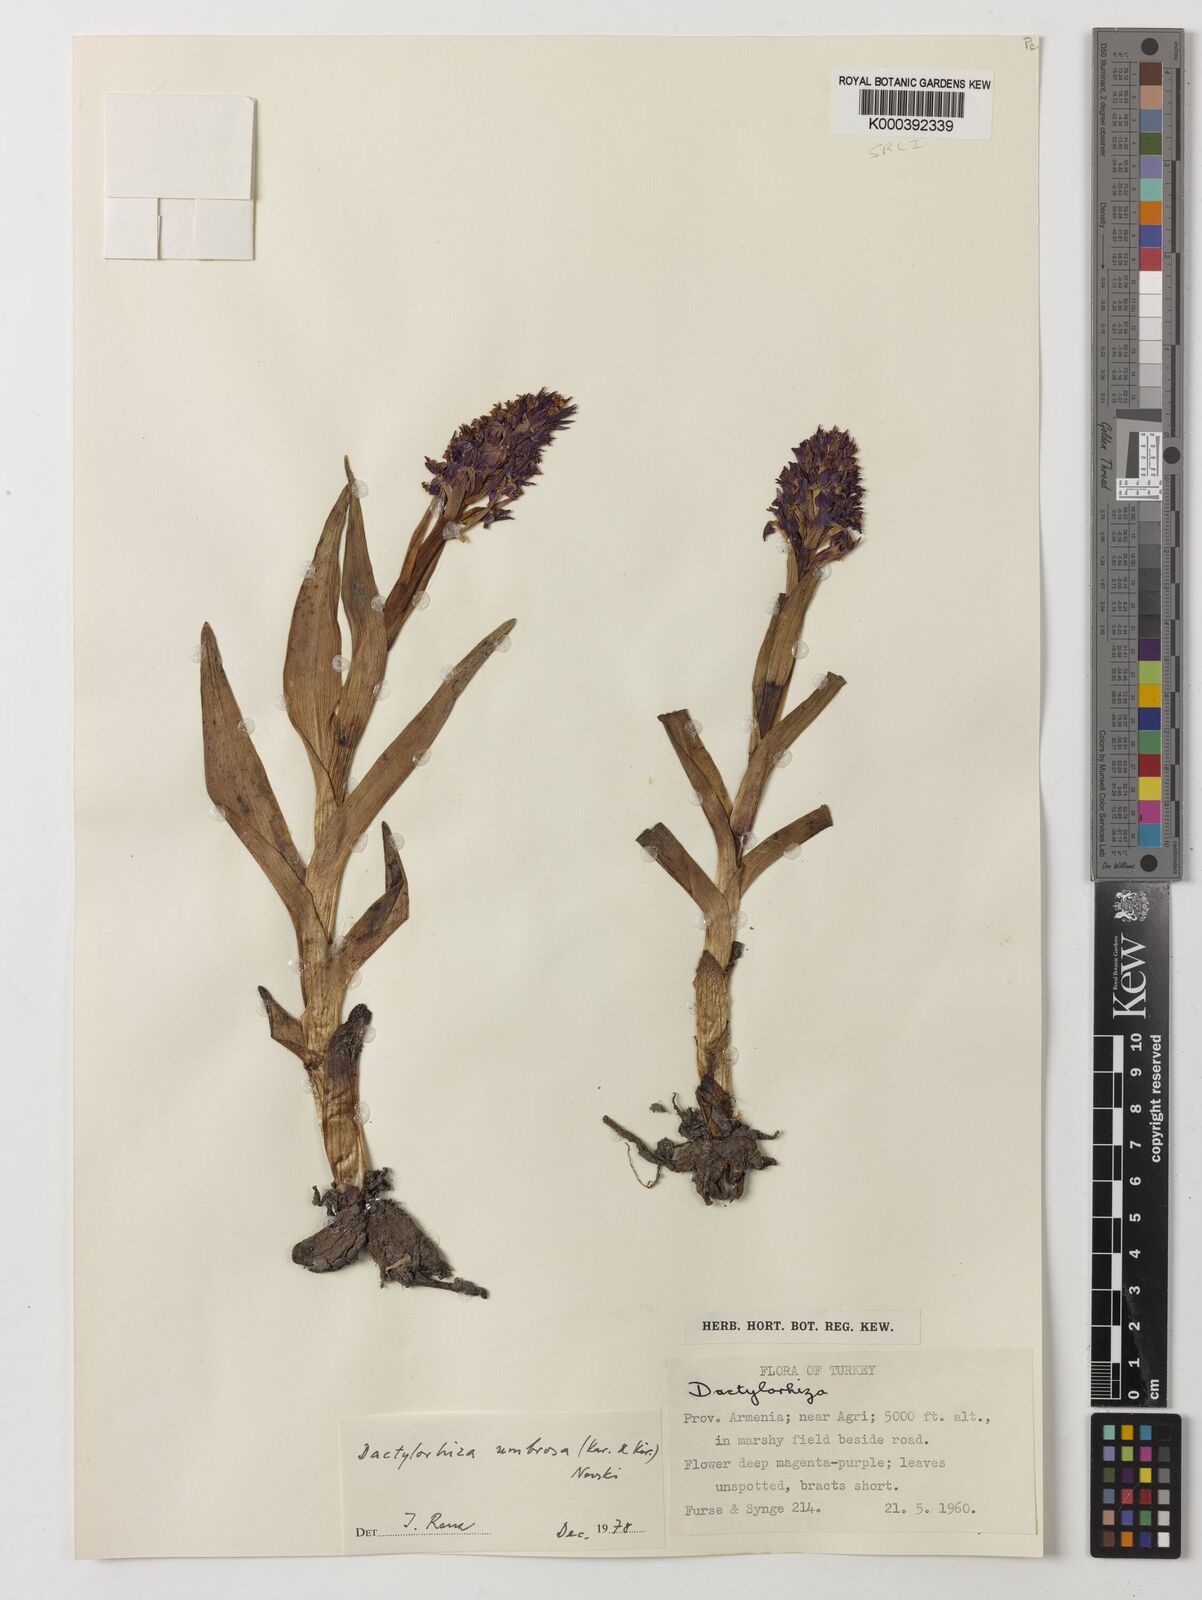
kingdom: Plantae
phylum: Tracheophyta
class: Liliopsida
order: Asparagales
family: Orchidaceae
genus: Dactylorhiza
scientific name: Dactylorhiza
